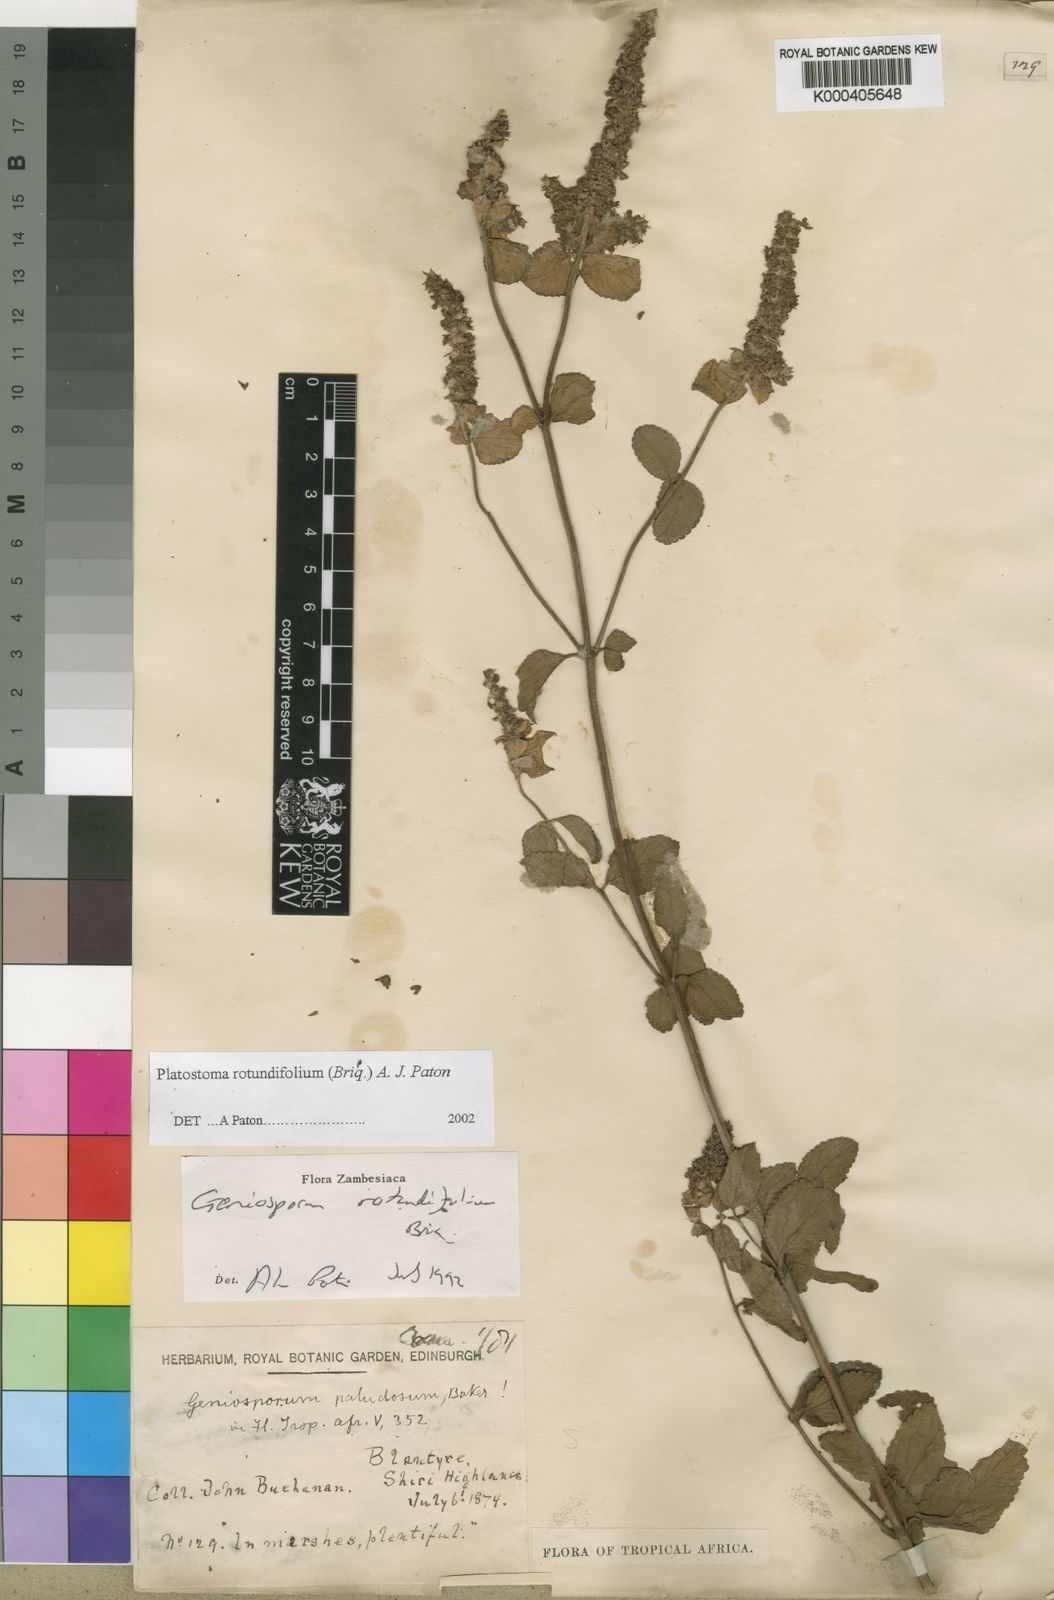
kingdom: Plantae
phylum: Tracheophyta
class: Magnoliopsida
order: Lamiales
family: Lamiaceae
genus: Platostoma
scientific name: Platostoma rotundifolium
